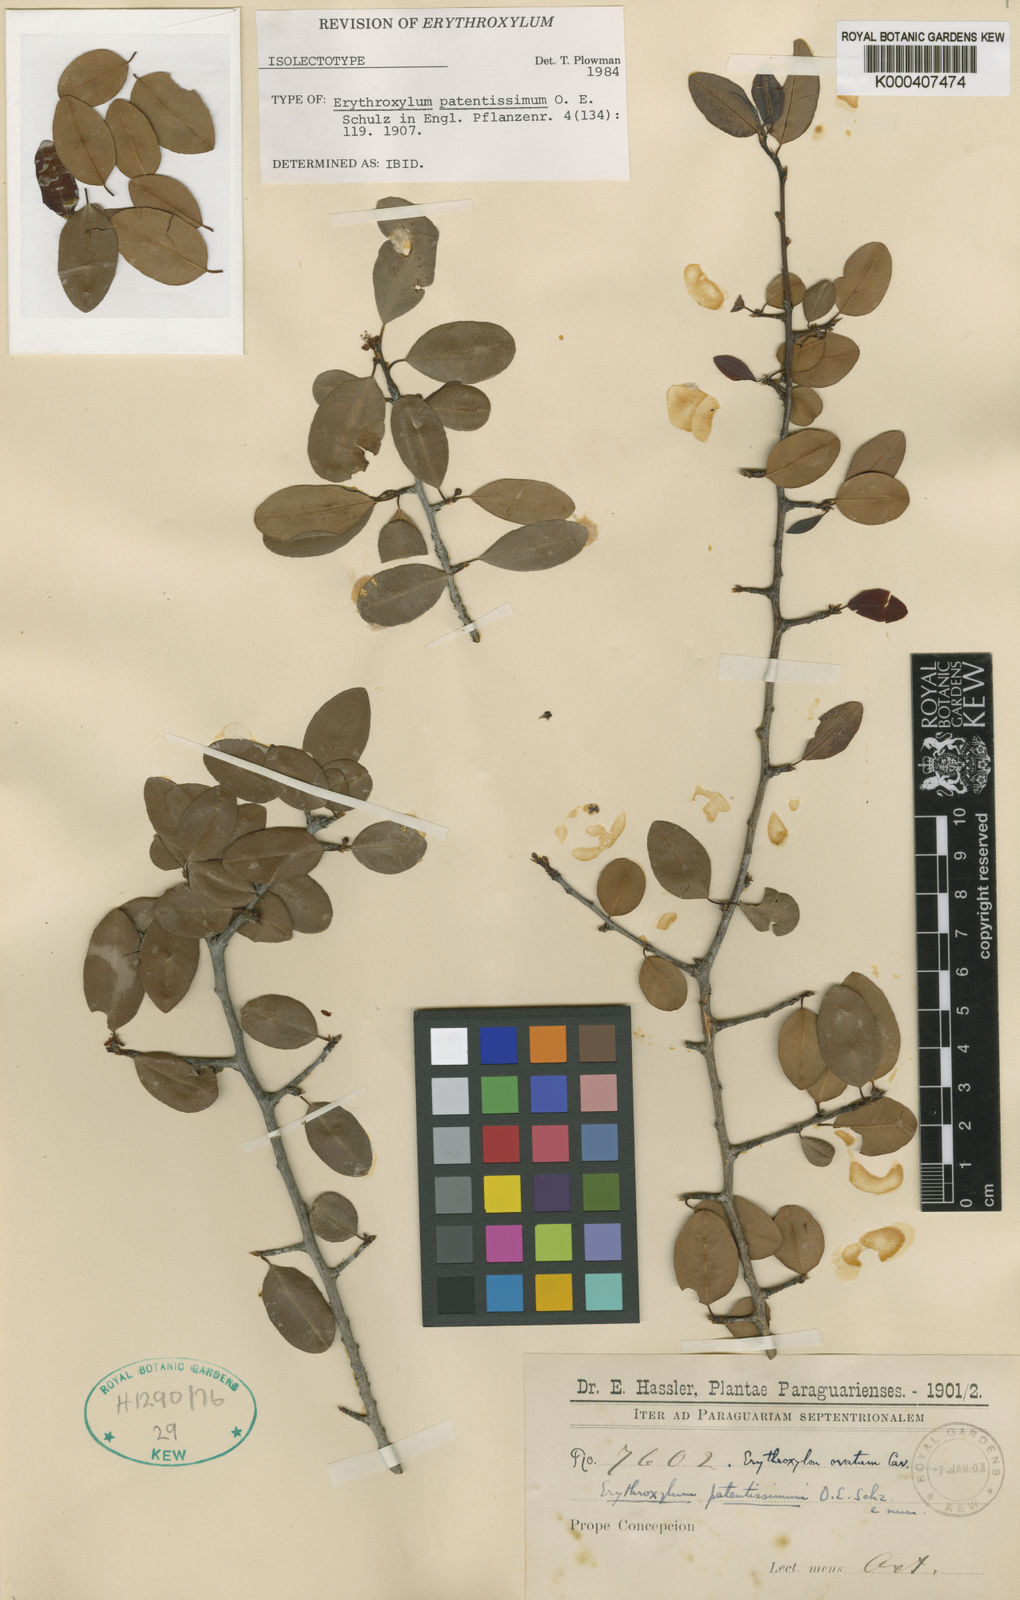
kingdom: Plantae
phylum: Tracheophyta
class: Magnoliopsida
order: Malpighiales
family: Erythroxylaceae
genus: Erythroxylum
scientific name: Erythroxylum patentissimum
